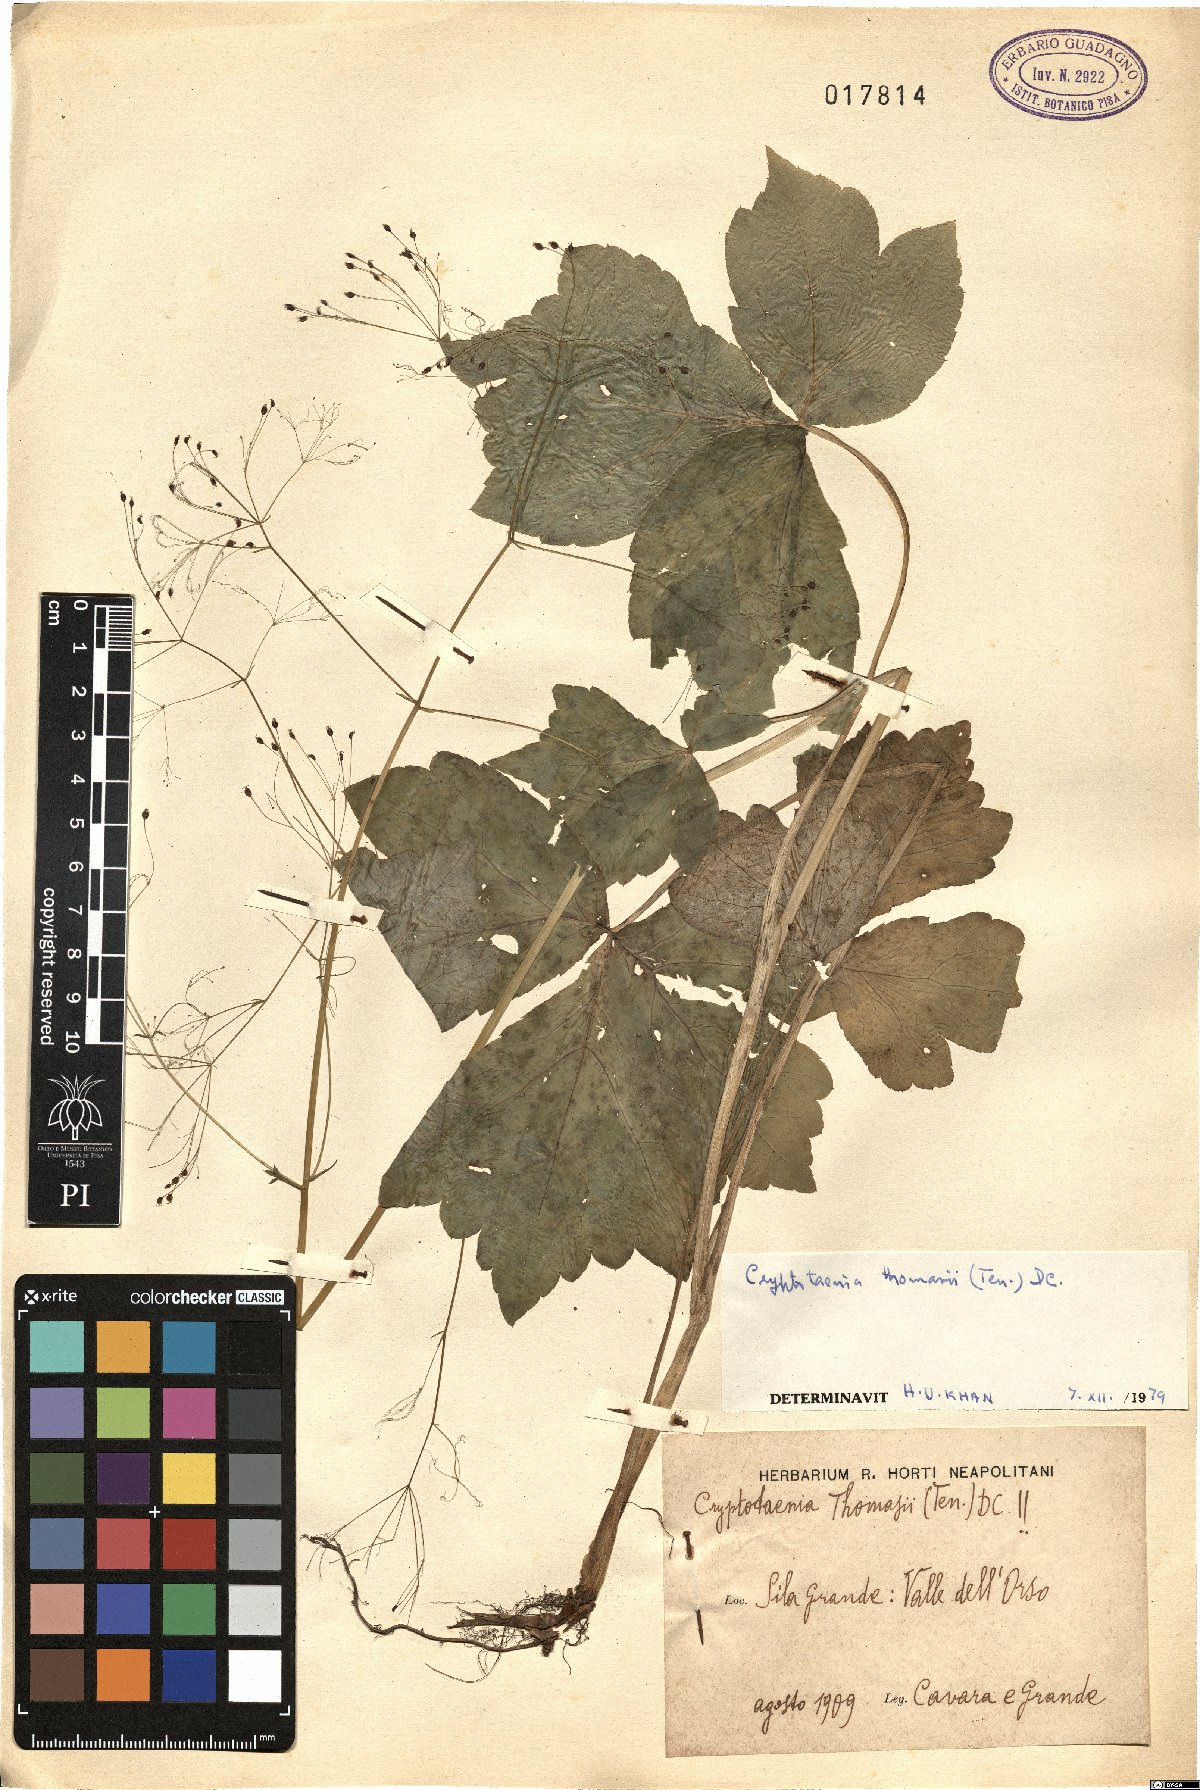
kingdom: Plantae
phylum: Tracheophyta
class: Magnoliopsida
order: Apiales
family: Apiaceae
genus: Cryptotaenia
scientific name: Cryptotaenia thomasii
